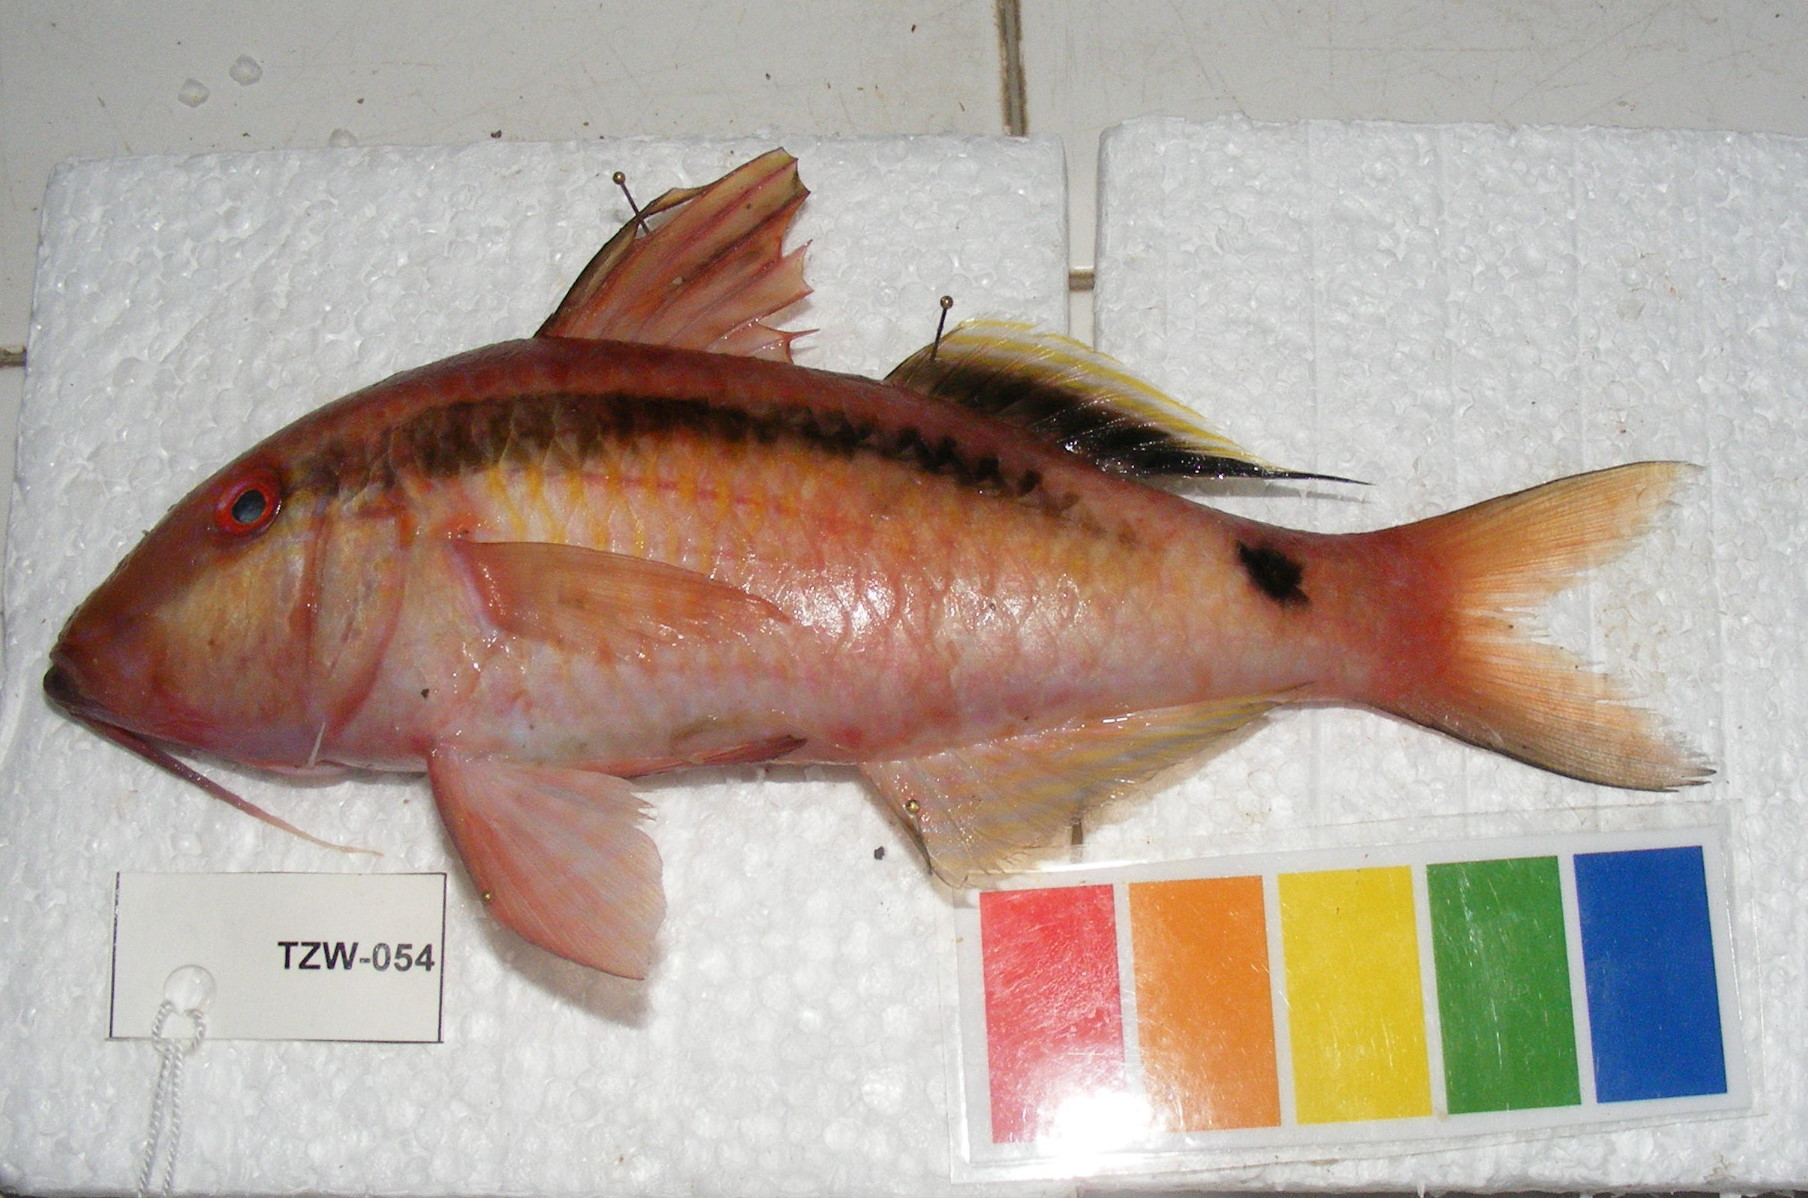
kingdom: Animalia
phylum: Chordata
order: Perciformes
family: Mullidae
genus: Parupeneus
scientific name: Parupeneus macronemus
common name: Long-barbel goatfish
